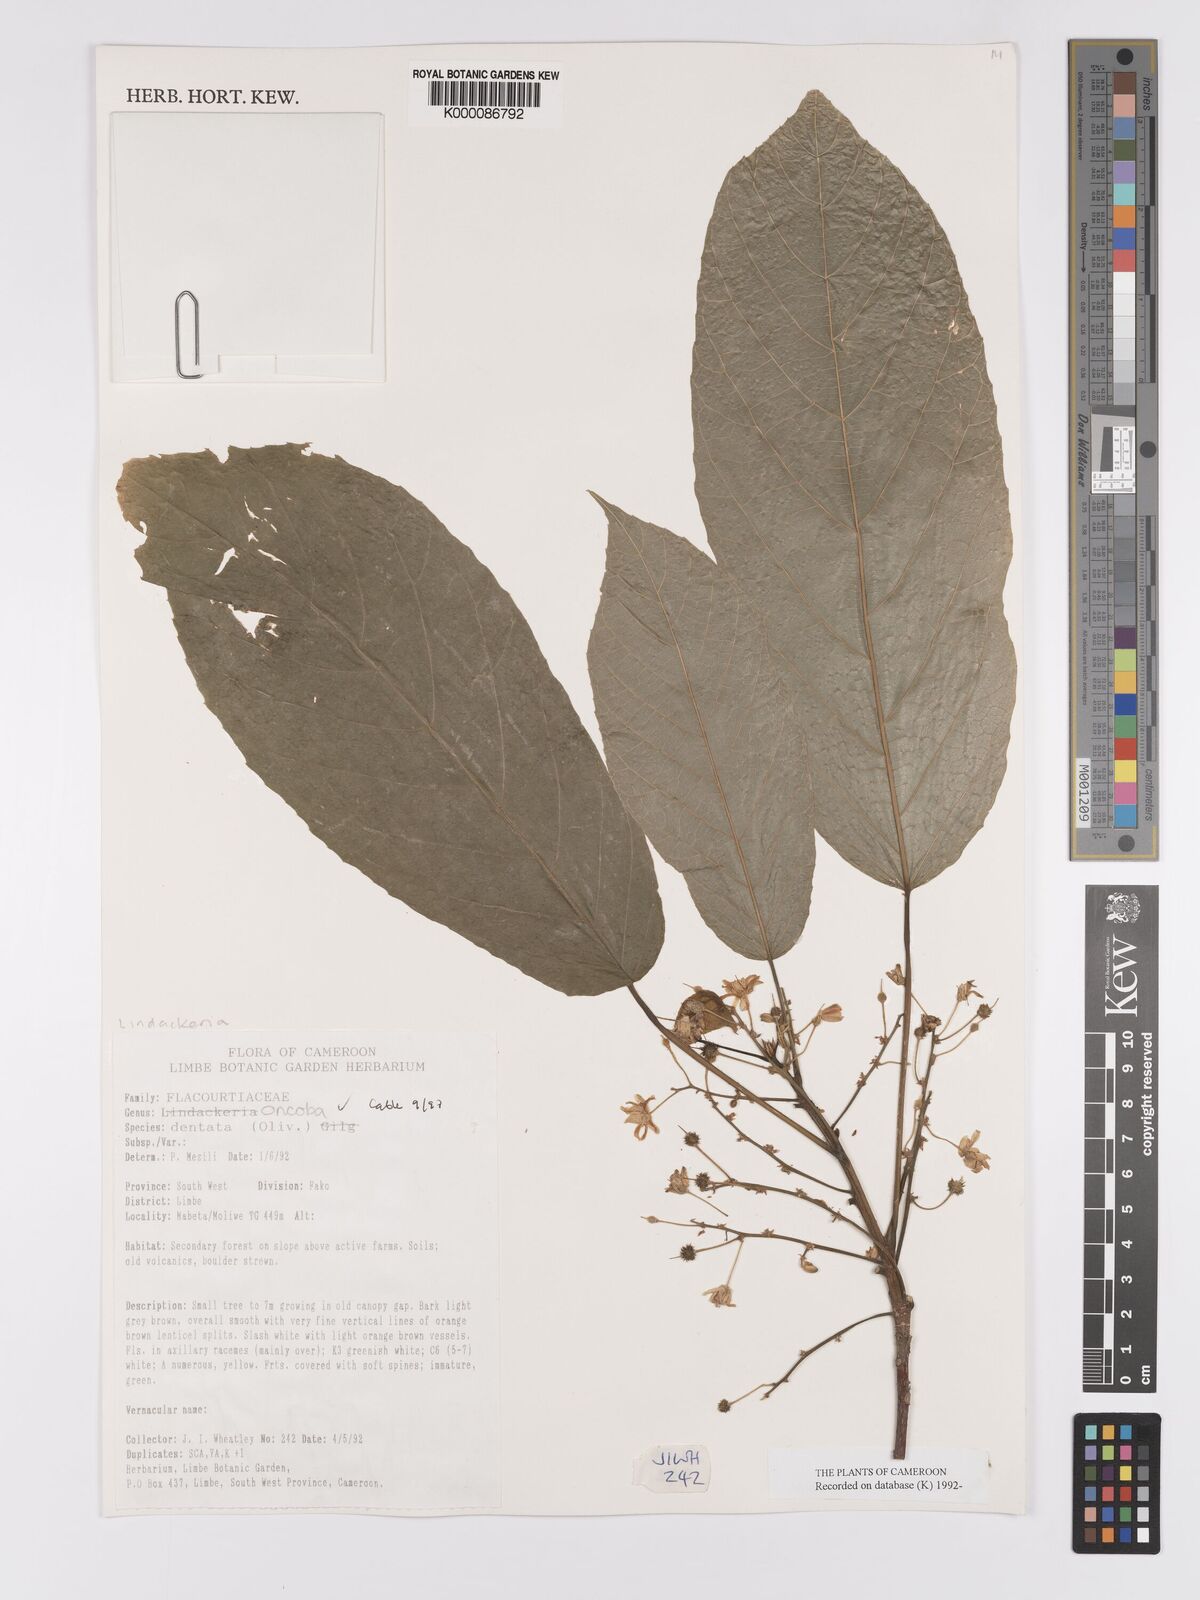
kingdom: Plantae
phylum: Tracheophyta
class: Magnoliopsida
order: Malpighiales
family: Achariaceae
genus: Lindackeria
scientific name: Lindackeria dentata
